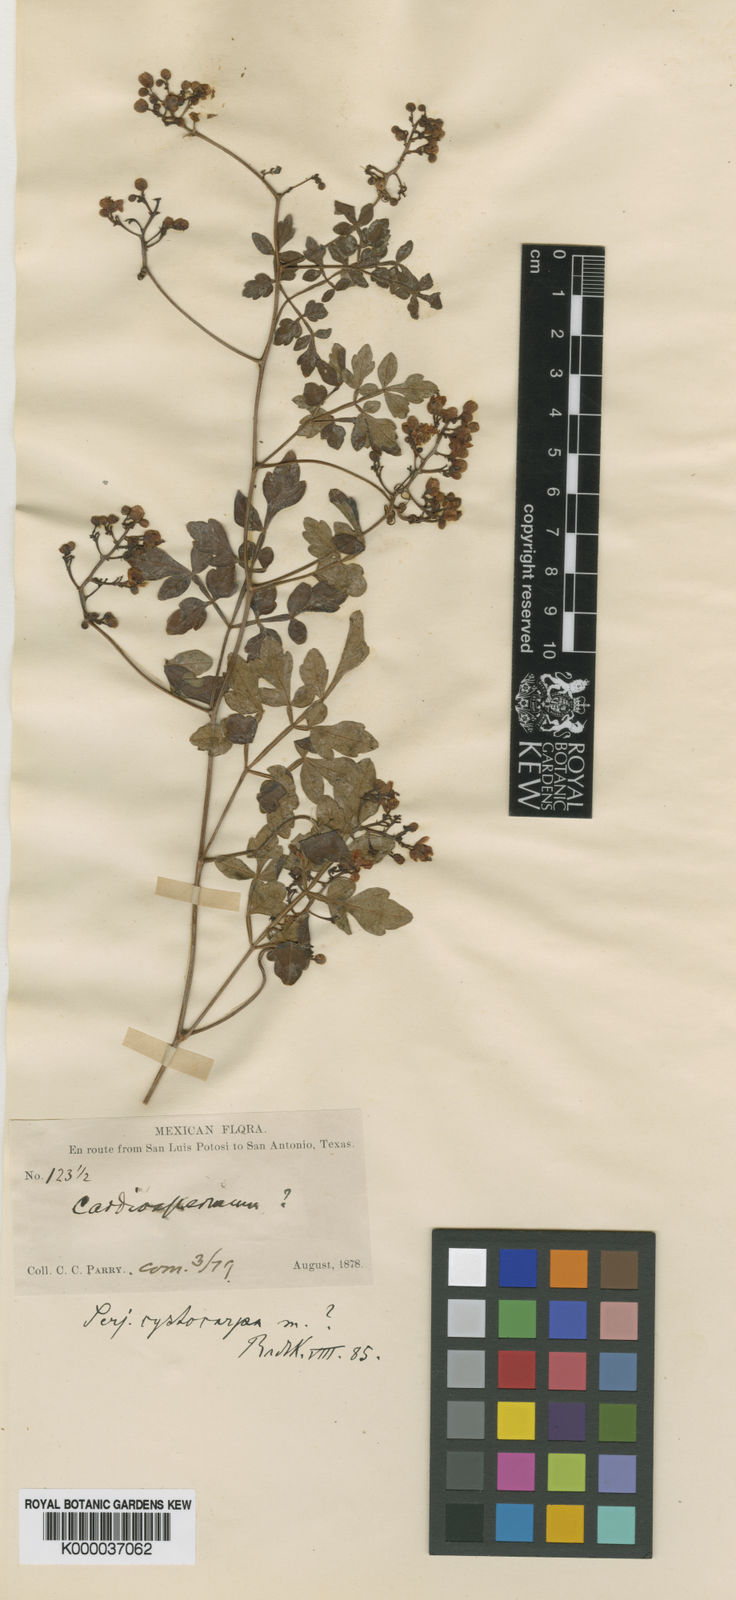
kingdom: Plantae
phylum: Tracheophyta
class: Magnoliopsida
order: Sapindales
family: Sapindaceae
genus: Serjania
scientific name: Serjania cystocarpa
